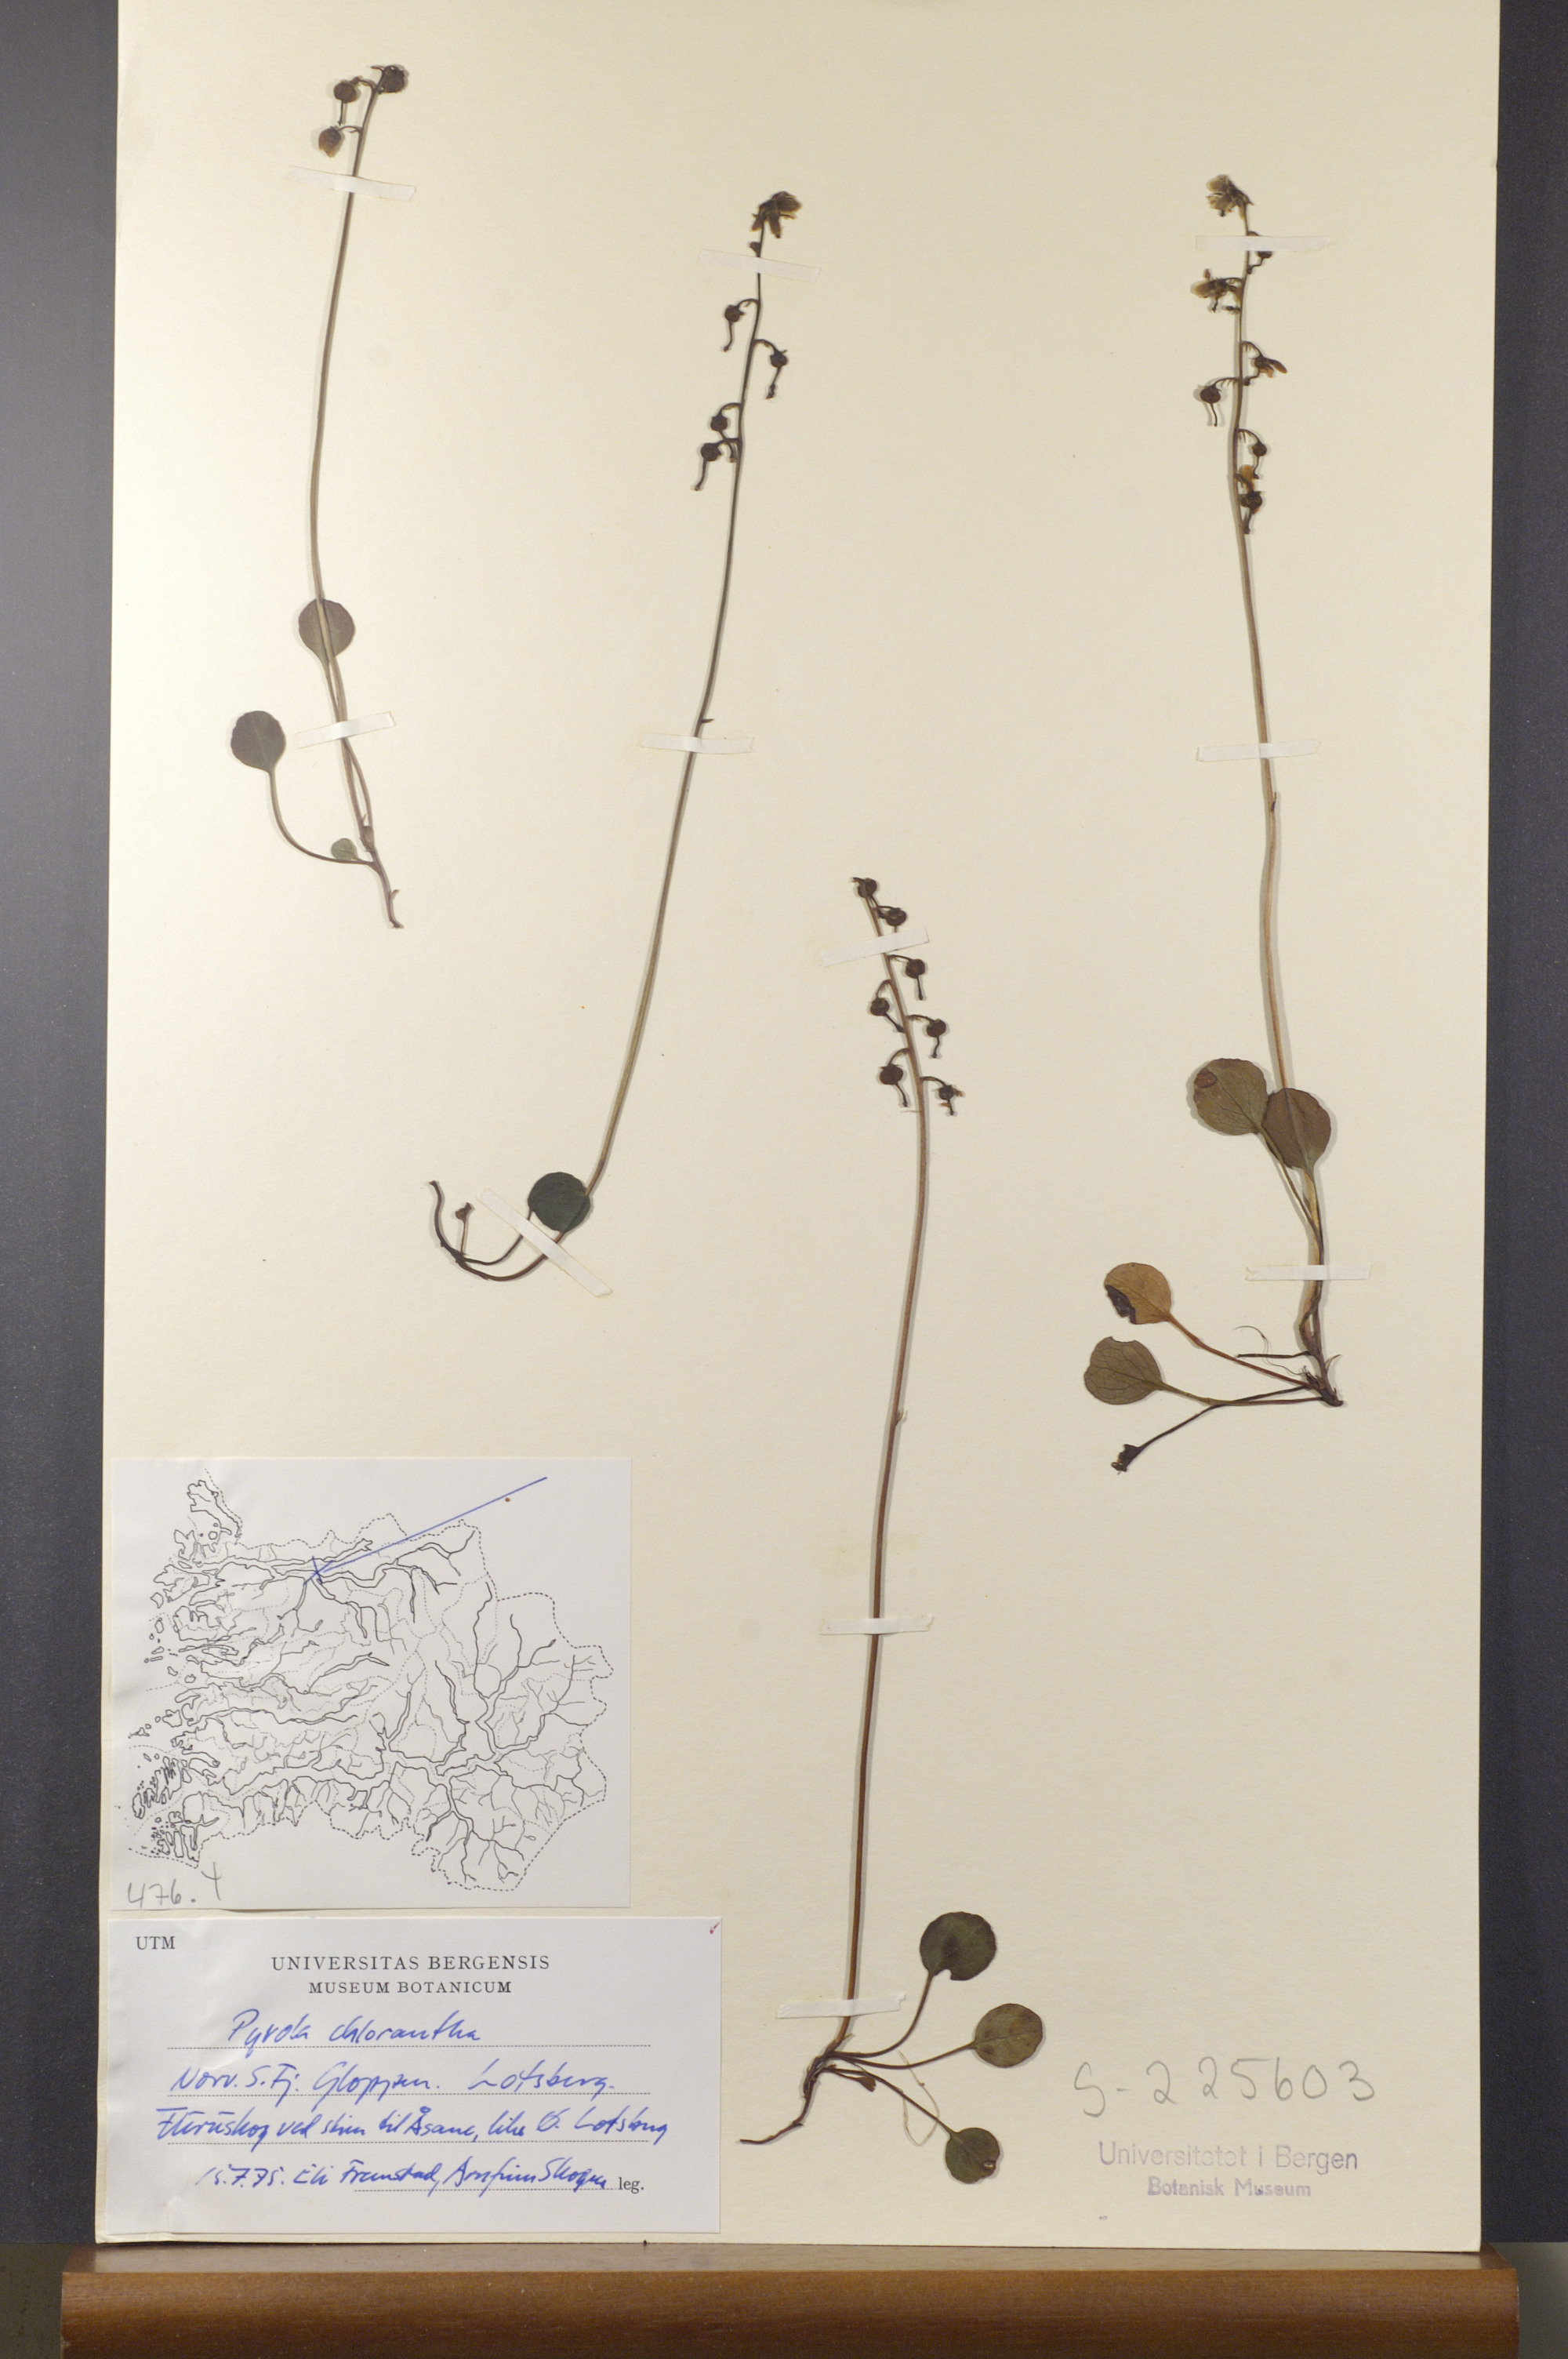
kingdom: Plantae
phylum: Tracheophyta
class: Magnoliopsida
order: Ericales
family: Ericaceae
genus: Pyrola
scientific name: Pyrola chlorantha
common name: Green wintergreen
